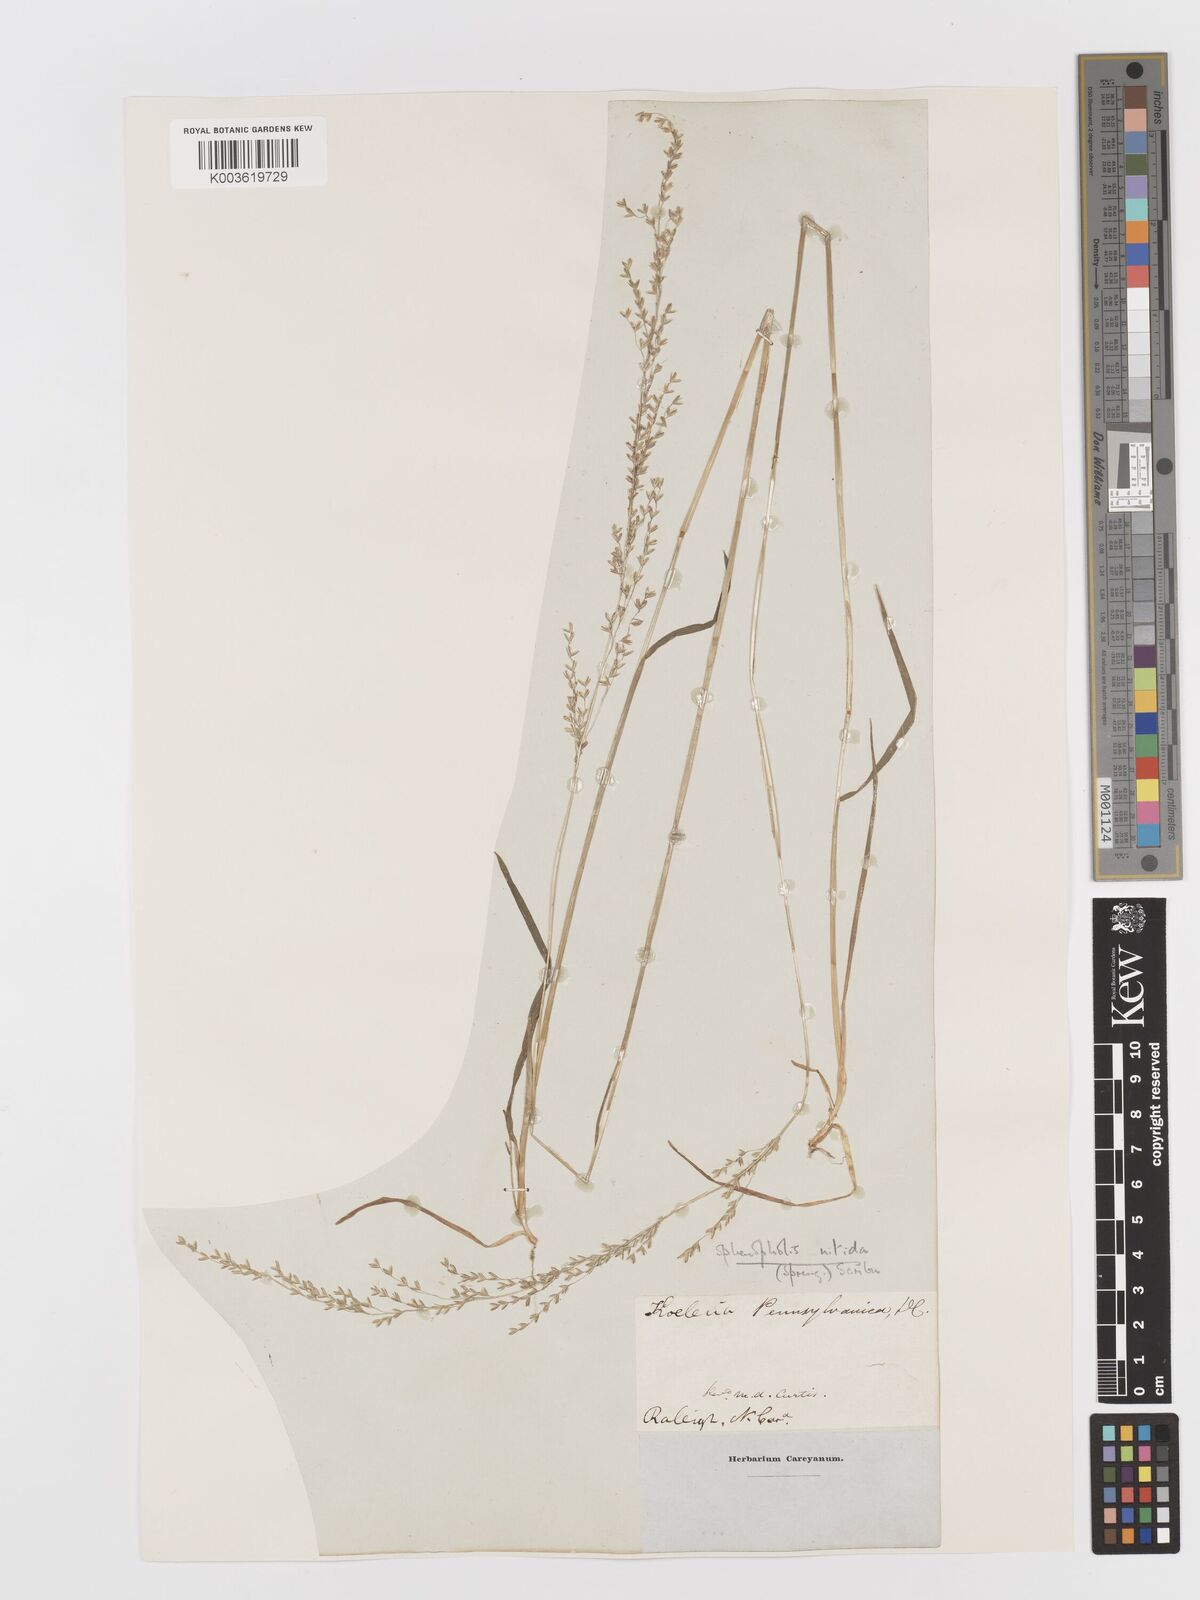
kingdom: Plantae
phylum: Tracheophyta
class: Liliopsida
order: Poales
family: Poaceae
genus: Sphenopholis
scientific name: Sphenopholis nitida
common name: Shiny wedgegrass
